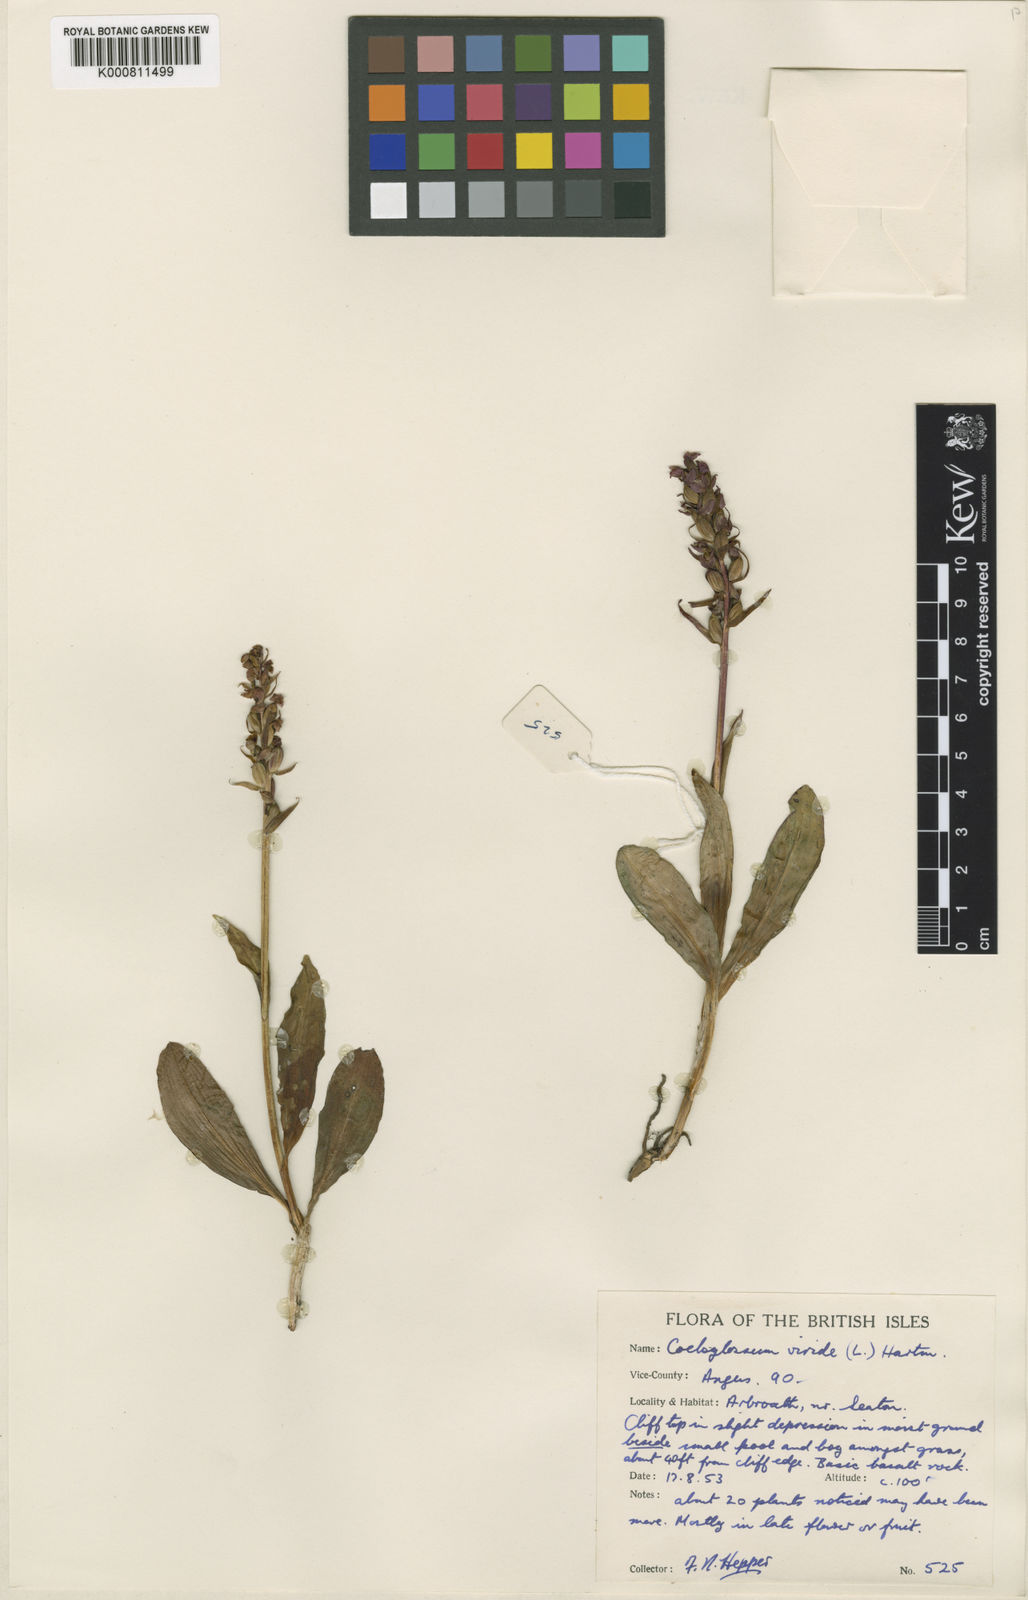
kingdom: Plantae
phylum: Tracheophyta
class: Liliopsida
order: Asparagales
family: Orchidaceae
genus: Dactylorhiza
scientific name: Dactylorhiza viridis
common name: Longbract frog orchid
